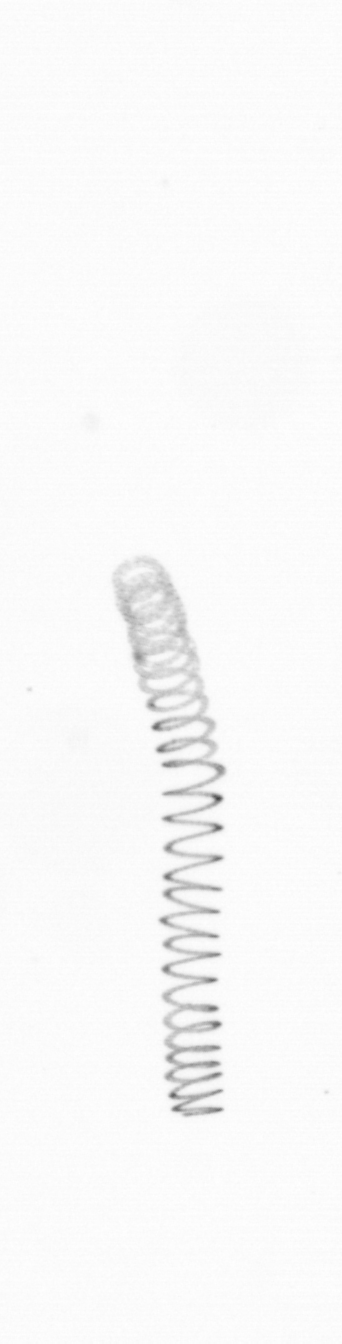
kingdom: Chromista
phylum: Ochrophyta
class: Bacillariophyceae
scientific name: Bacillariophyceae
